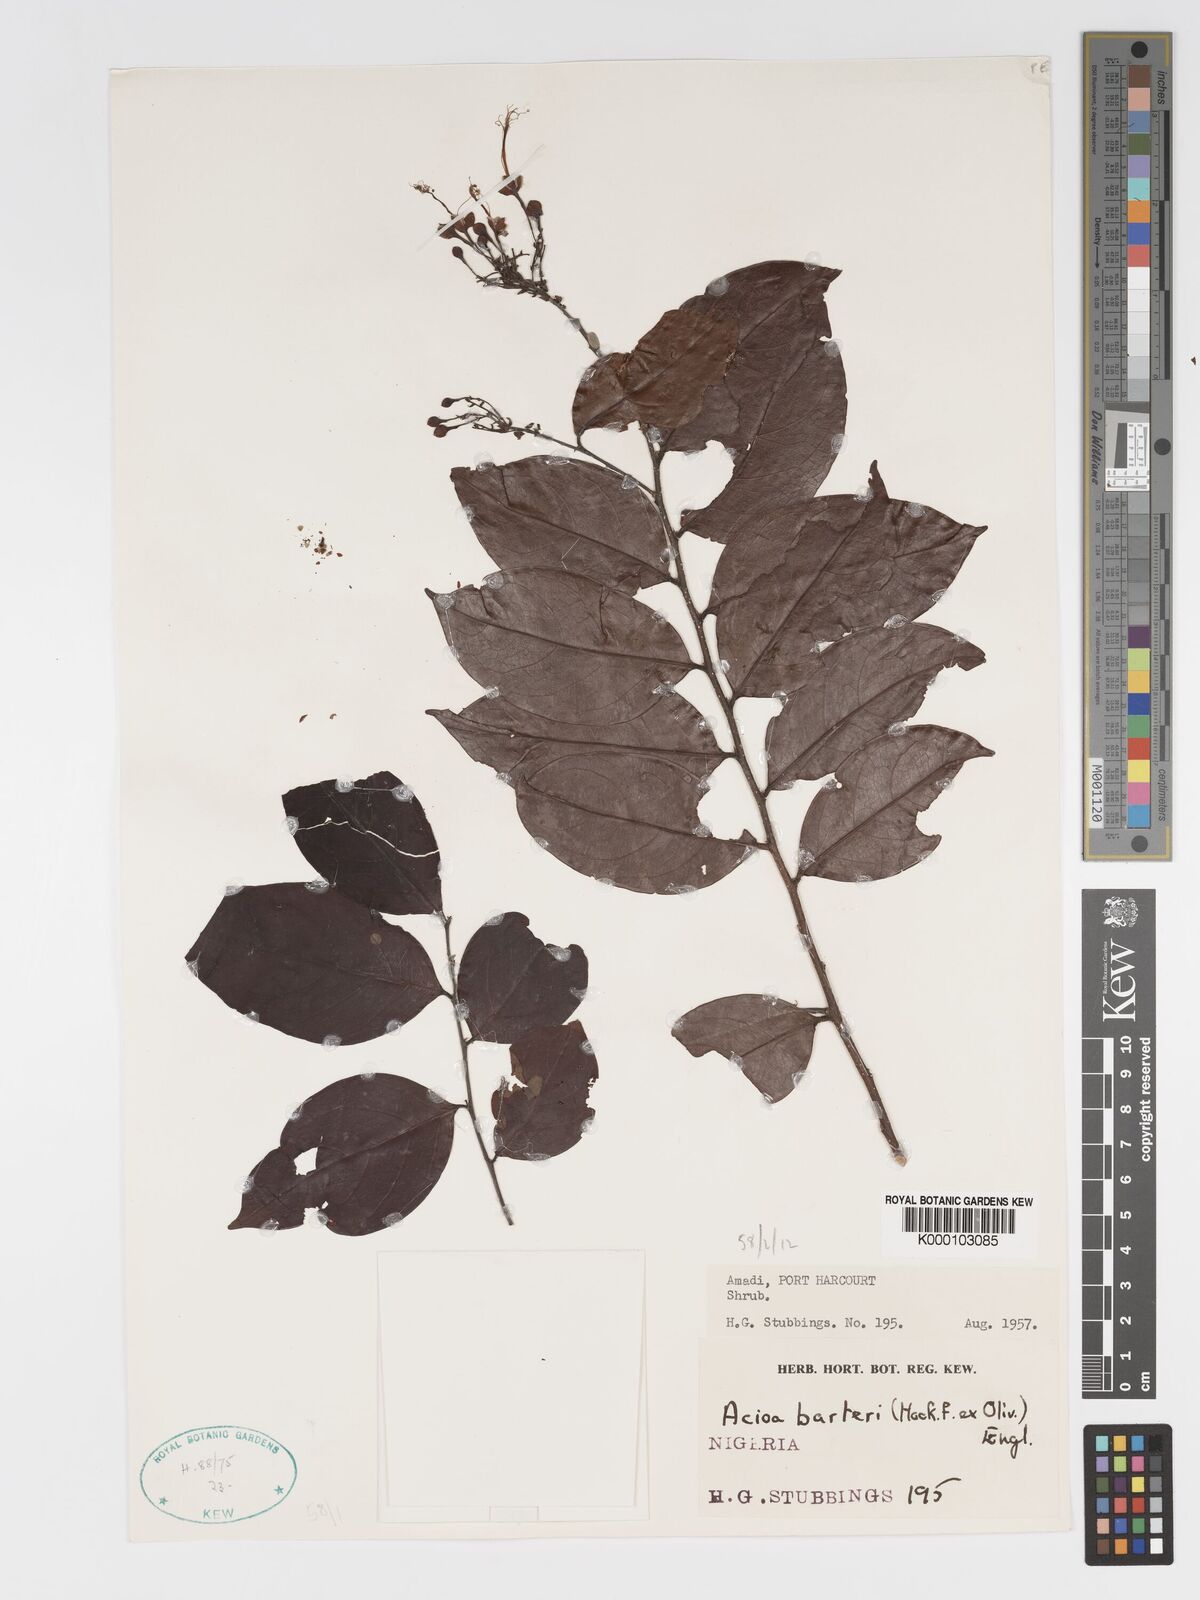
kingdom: Plantae
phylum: Tracheophyta
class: Magnoliopsida
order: Malpighiales
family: Chrysobalanaceae
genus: Dactyladenia
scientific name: Dactyladenia barteri
